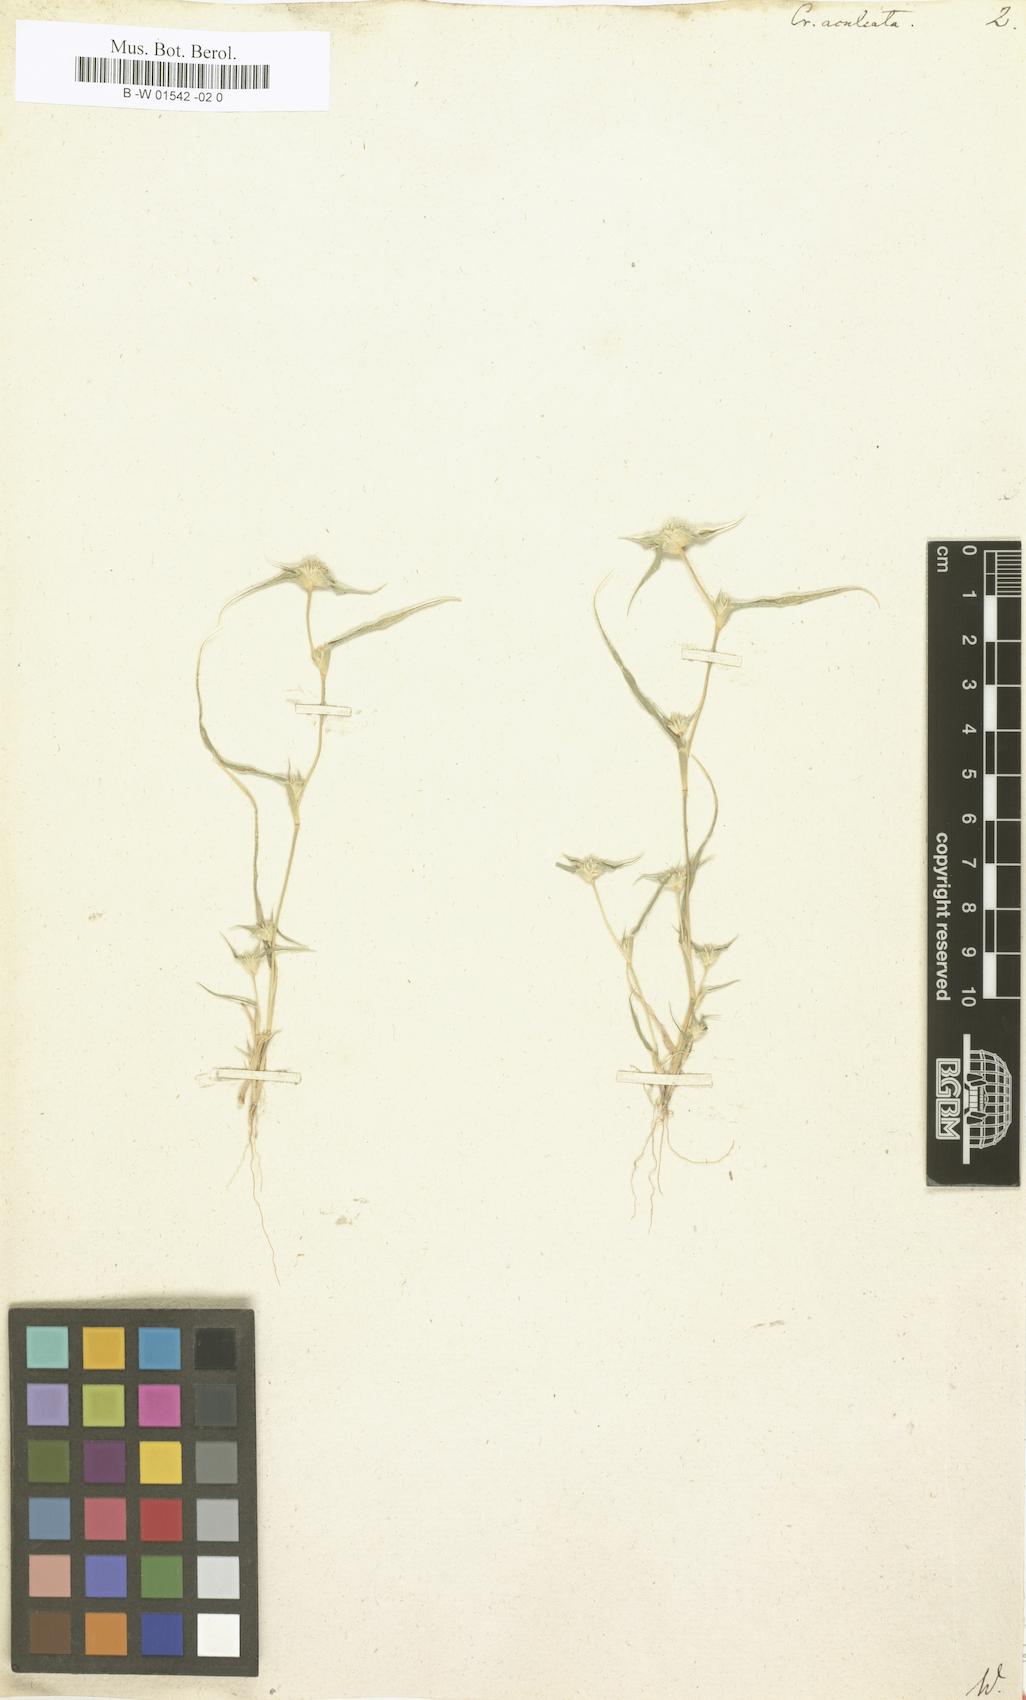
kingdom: Plantae
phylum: Tracheophyta
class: Liliopsida
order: Poales
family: Poaceae
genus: Sporobolus
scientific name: Sporobolus aculeatus
